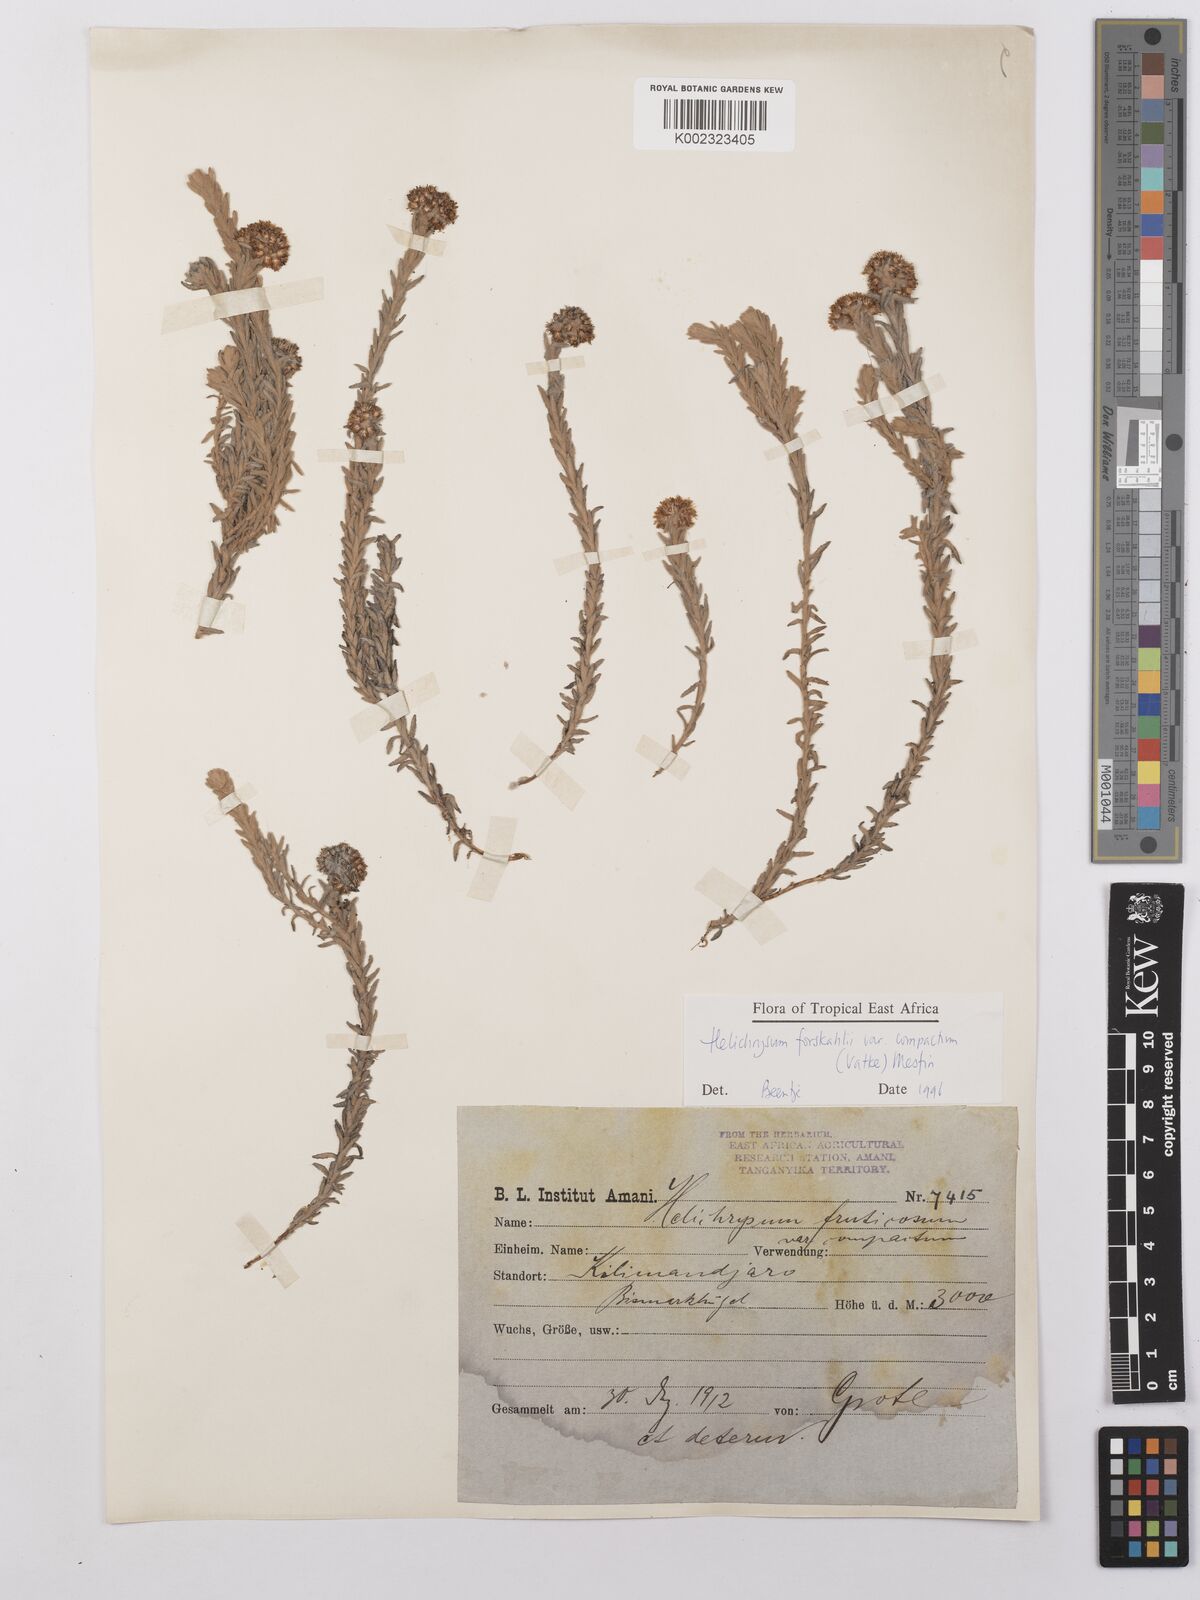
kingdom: Plantae
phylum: Tracheophyta
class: Magnoliopsida
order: Asterales
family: Asteraceae
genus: Helichrysum
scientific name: Helichrysum forskahlii
